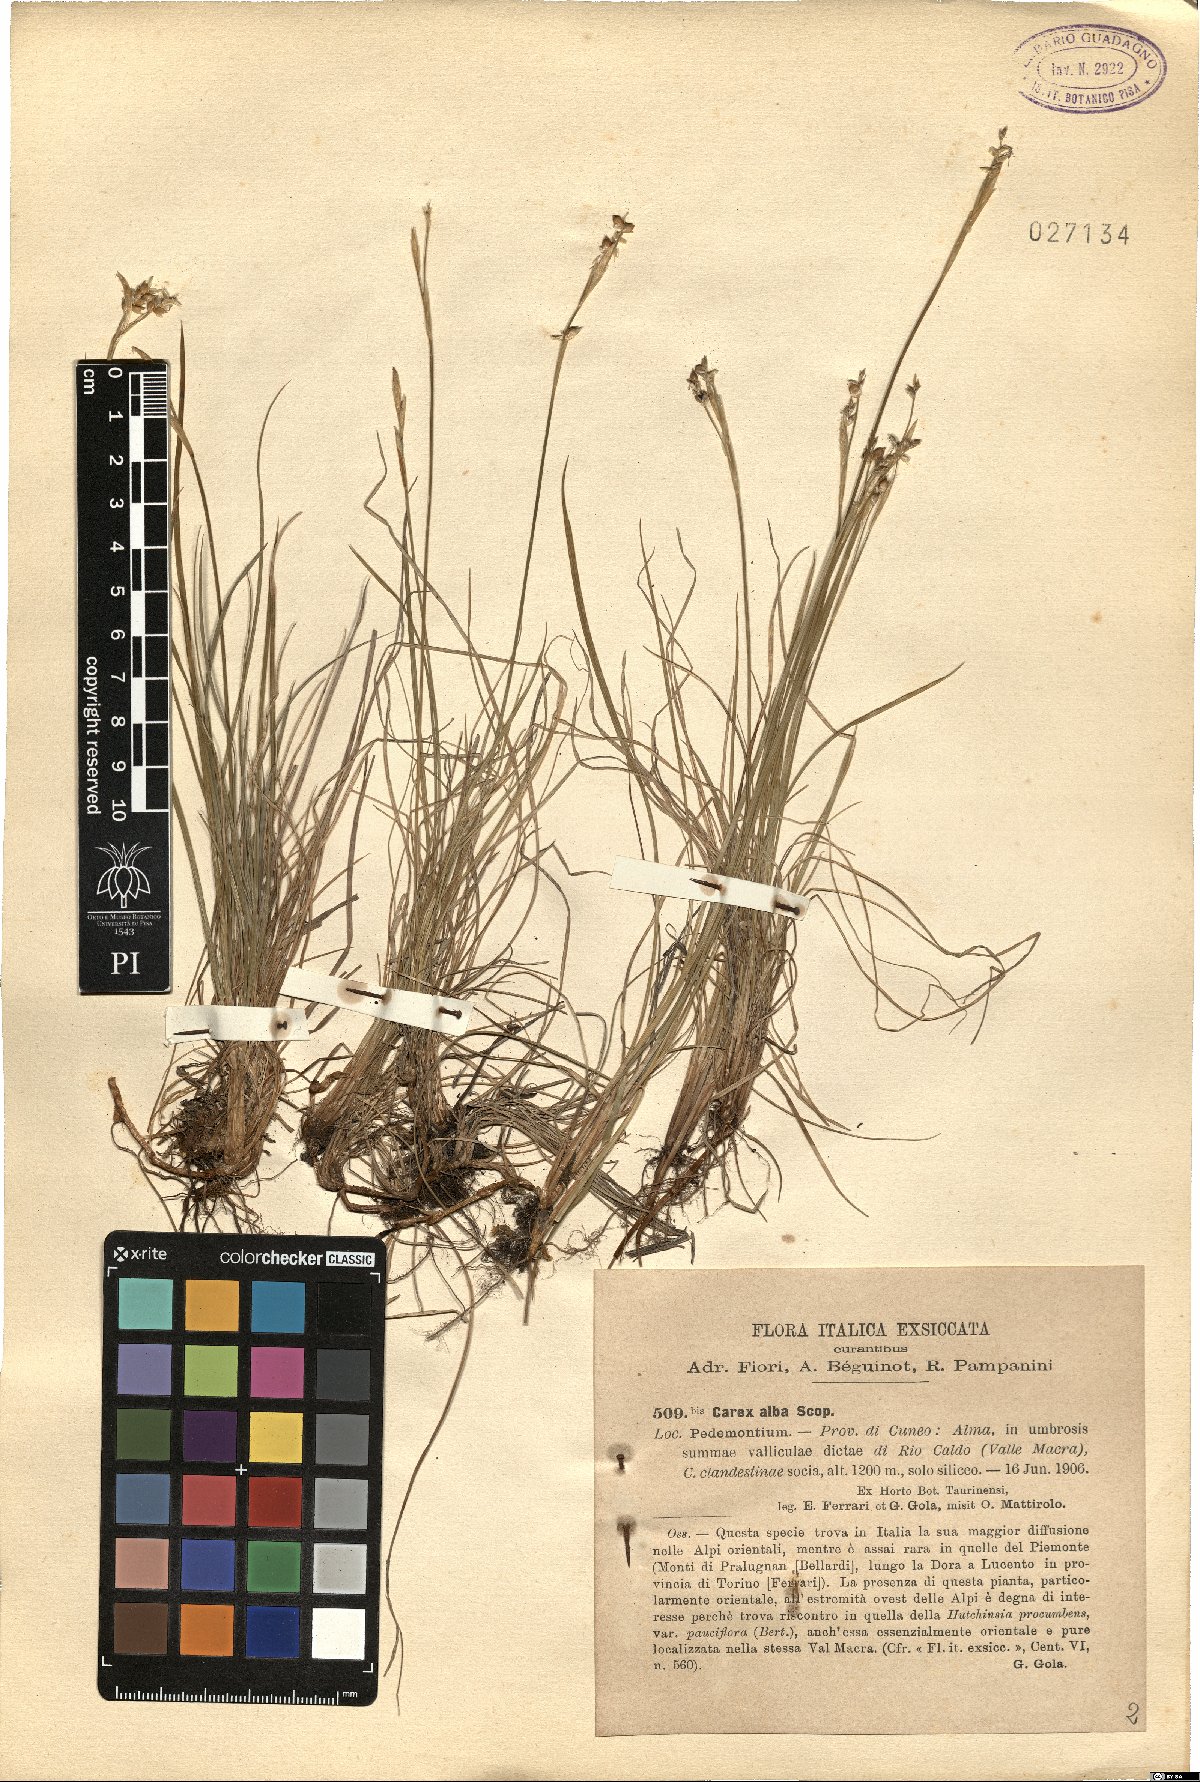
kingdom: Plantae
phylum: Tracheophyta
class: Liliopsida
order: Poales
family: Cyperaceae
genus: Carex
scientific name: Carex alba
